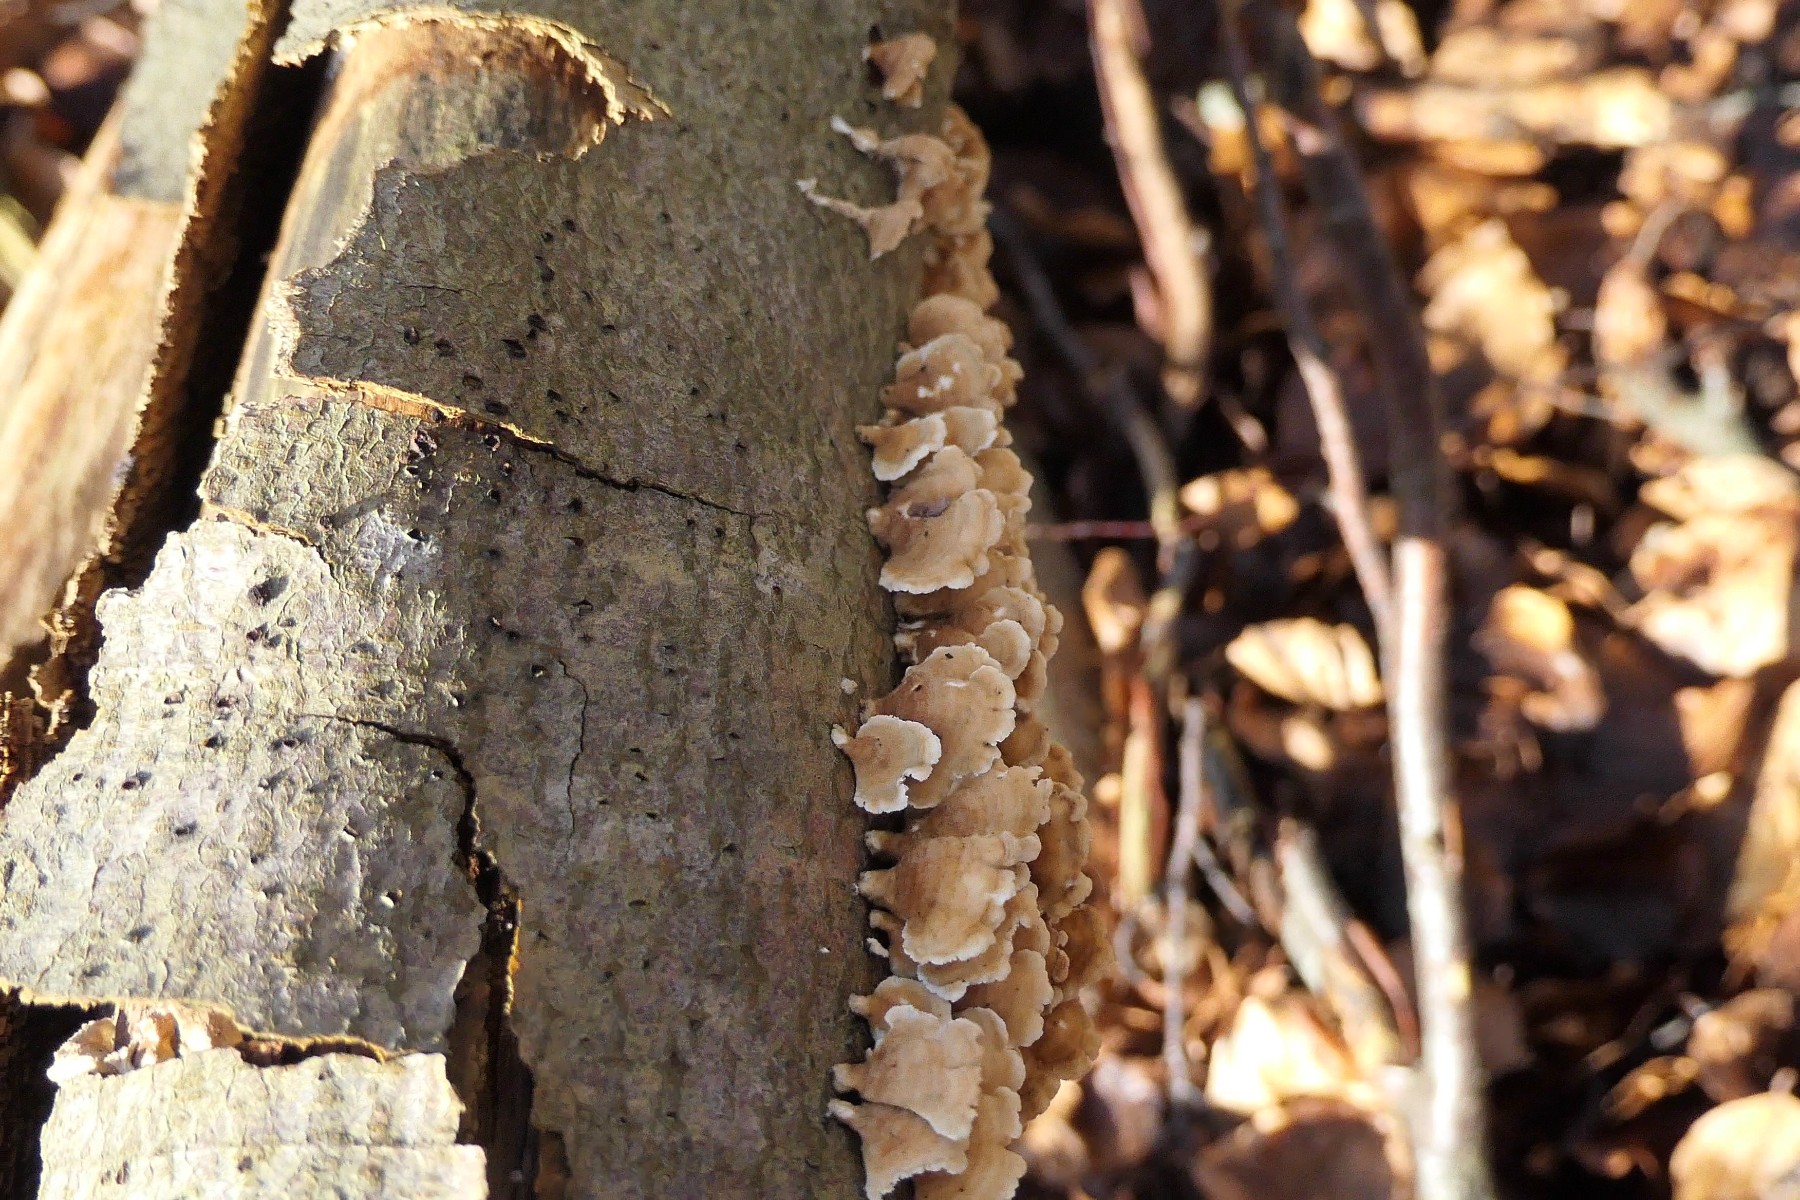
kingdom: Fungi
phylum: Basidiomycota
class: Agaricomycetes
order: Amylocorticiales
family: Amylocorticiaceae
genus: Plicaturopsis
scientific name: Plicaturopsis crispa
